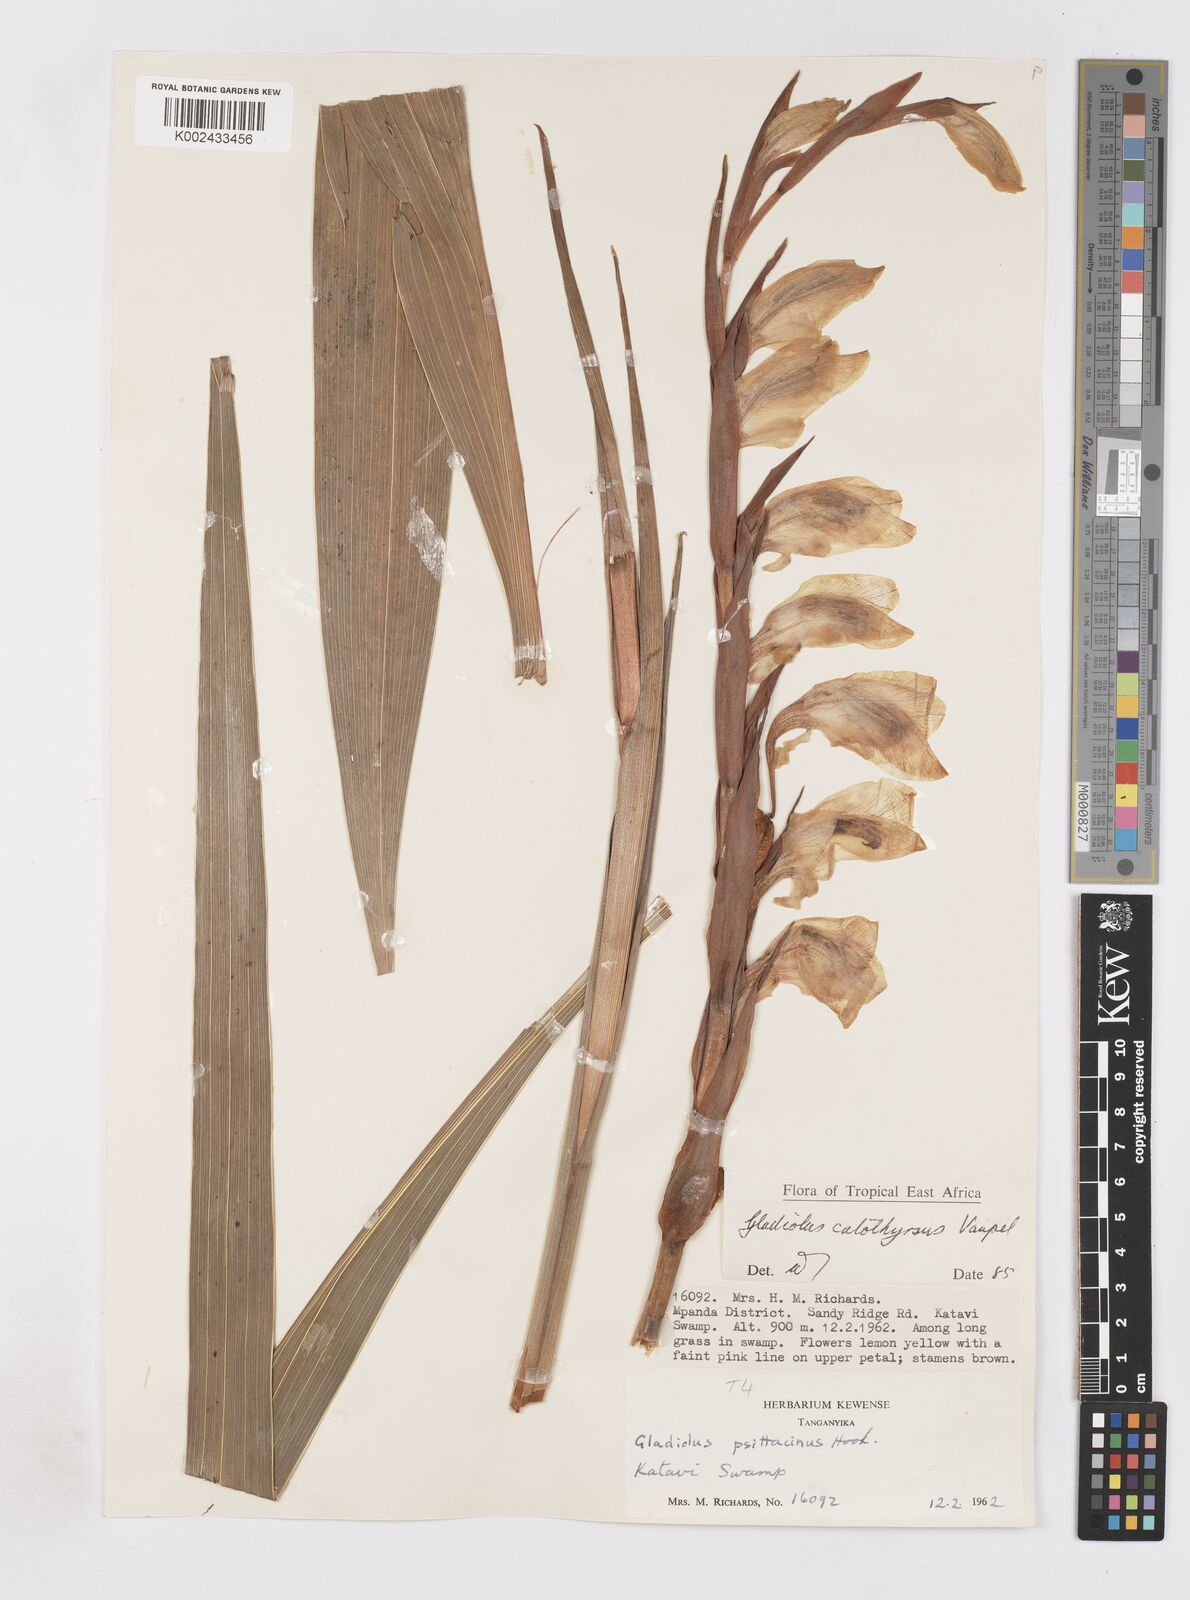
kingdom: Plantae
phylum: Tracheophyta
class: Liliopsida
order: Asparagales
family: Iridaceae
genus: Gladiolus
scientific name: Gladiolus dalenii
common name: Cornflag
